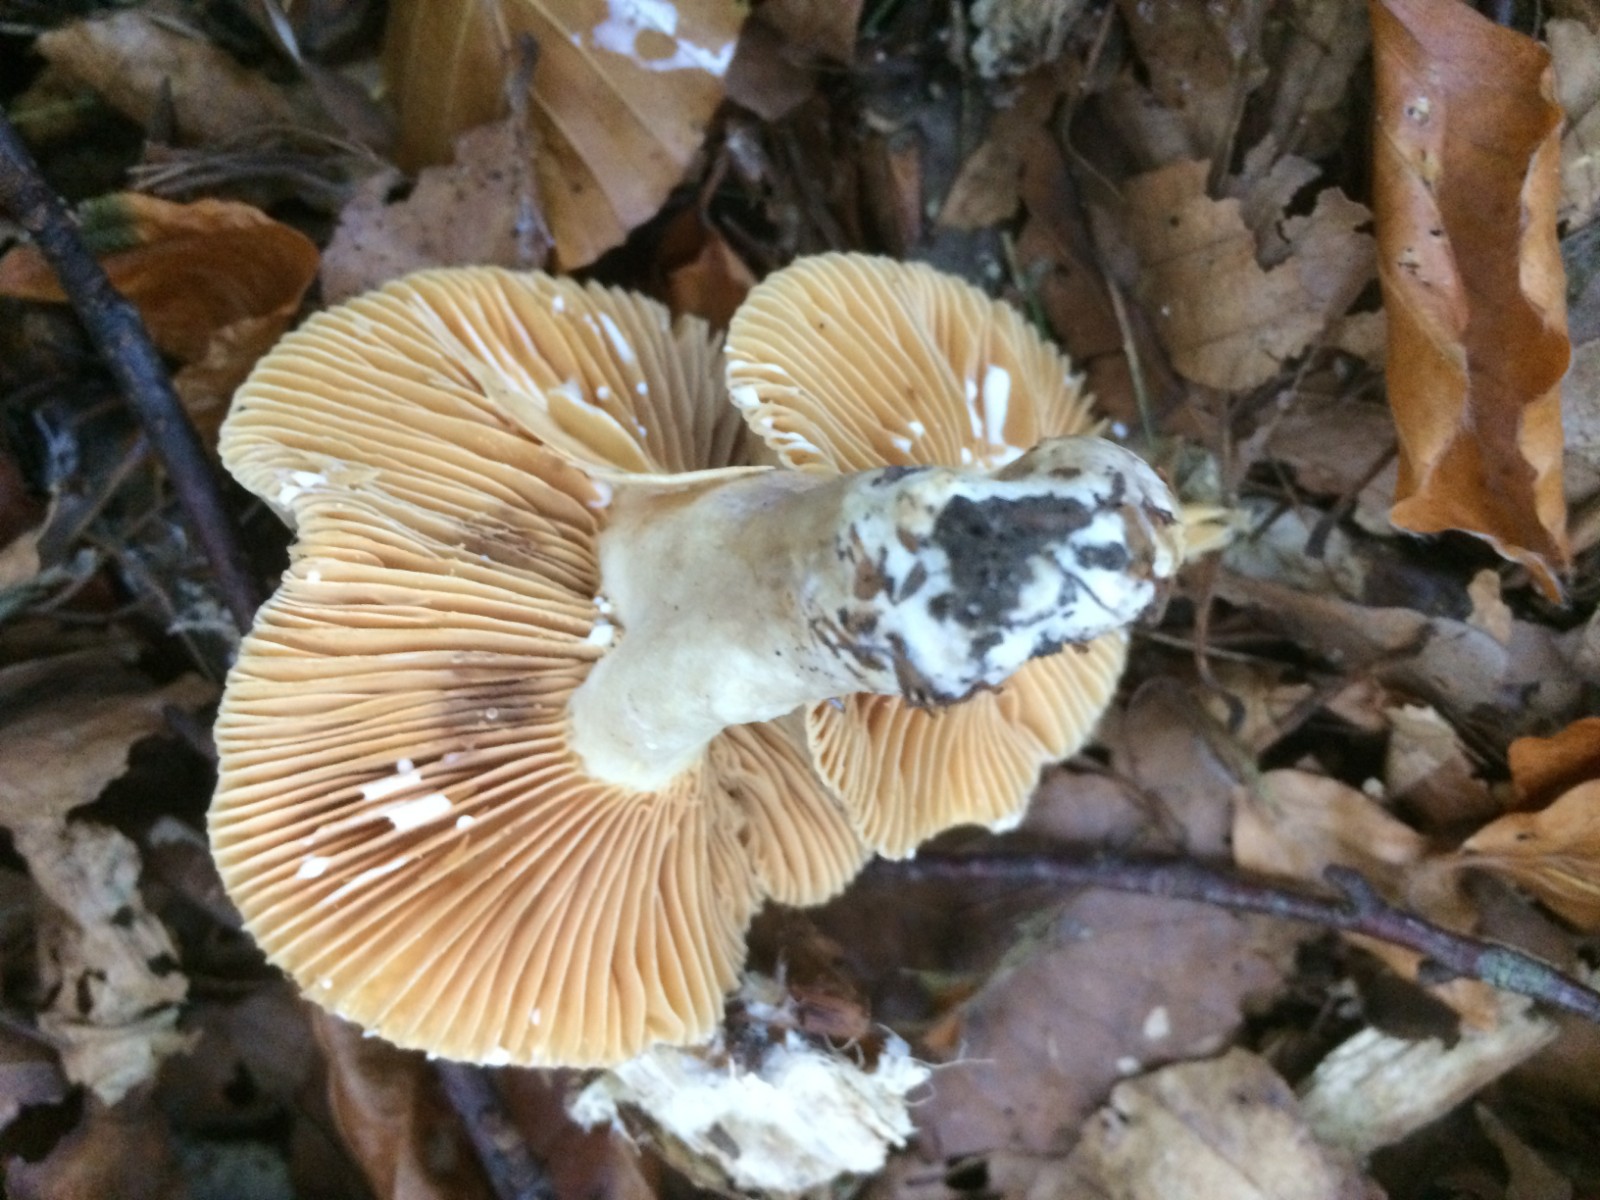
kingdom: Fungi
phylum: Basidiomycota
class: Agaricomycetes
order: Russulales
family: Russulaceae
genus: Lactarius
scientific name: Lactarius ruginosus
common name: gråbrun mælkehat
